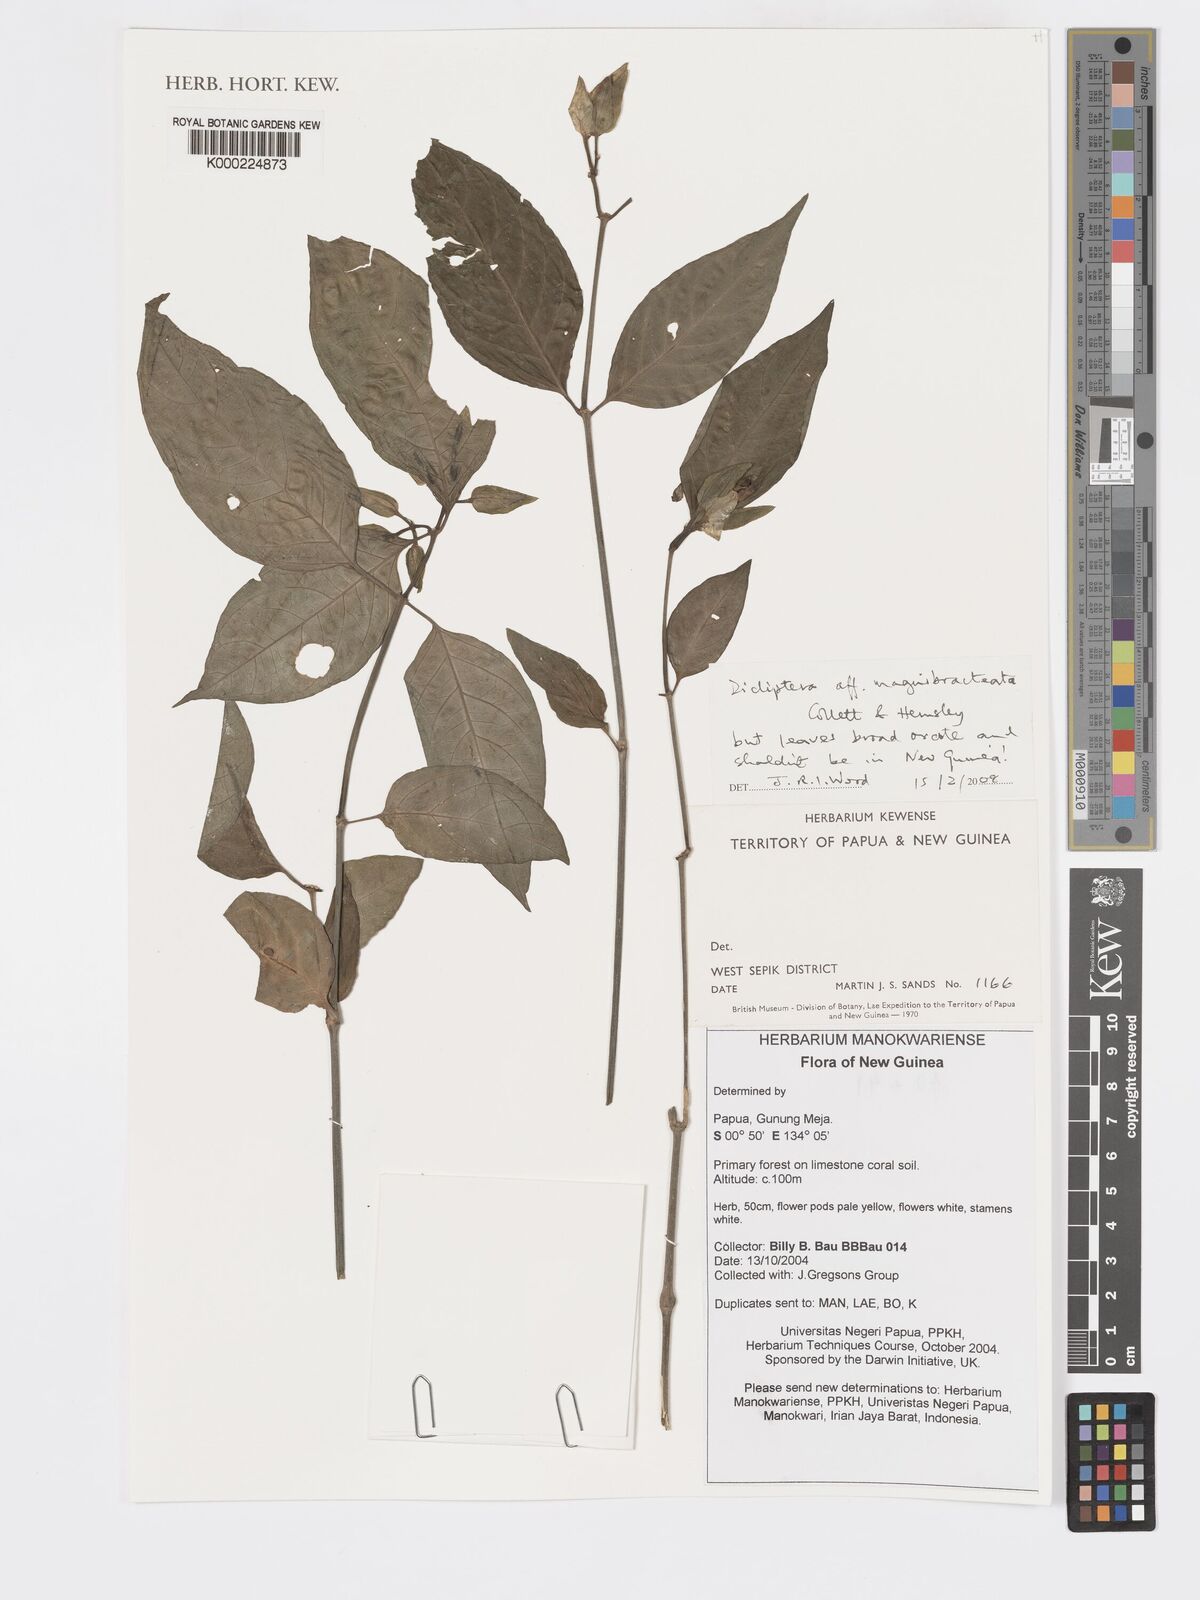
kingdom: Plantae
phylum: Tracheophyta
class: Magnoliopsida
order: Lamiales
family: Acanthaceae
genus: Dicliptera
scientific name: Dicliptera
